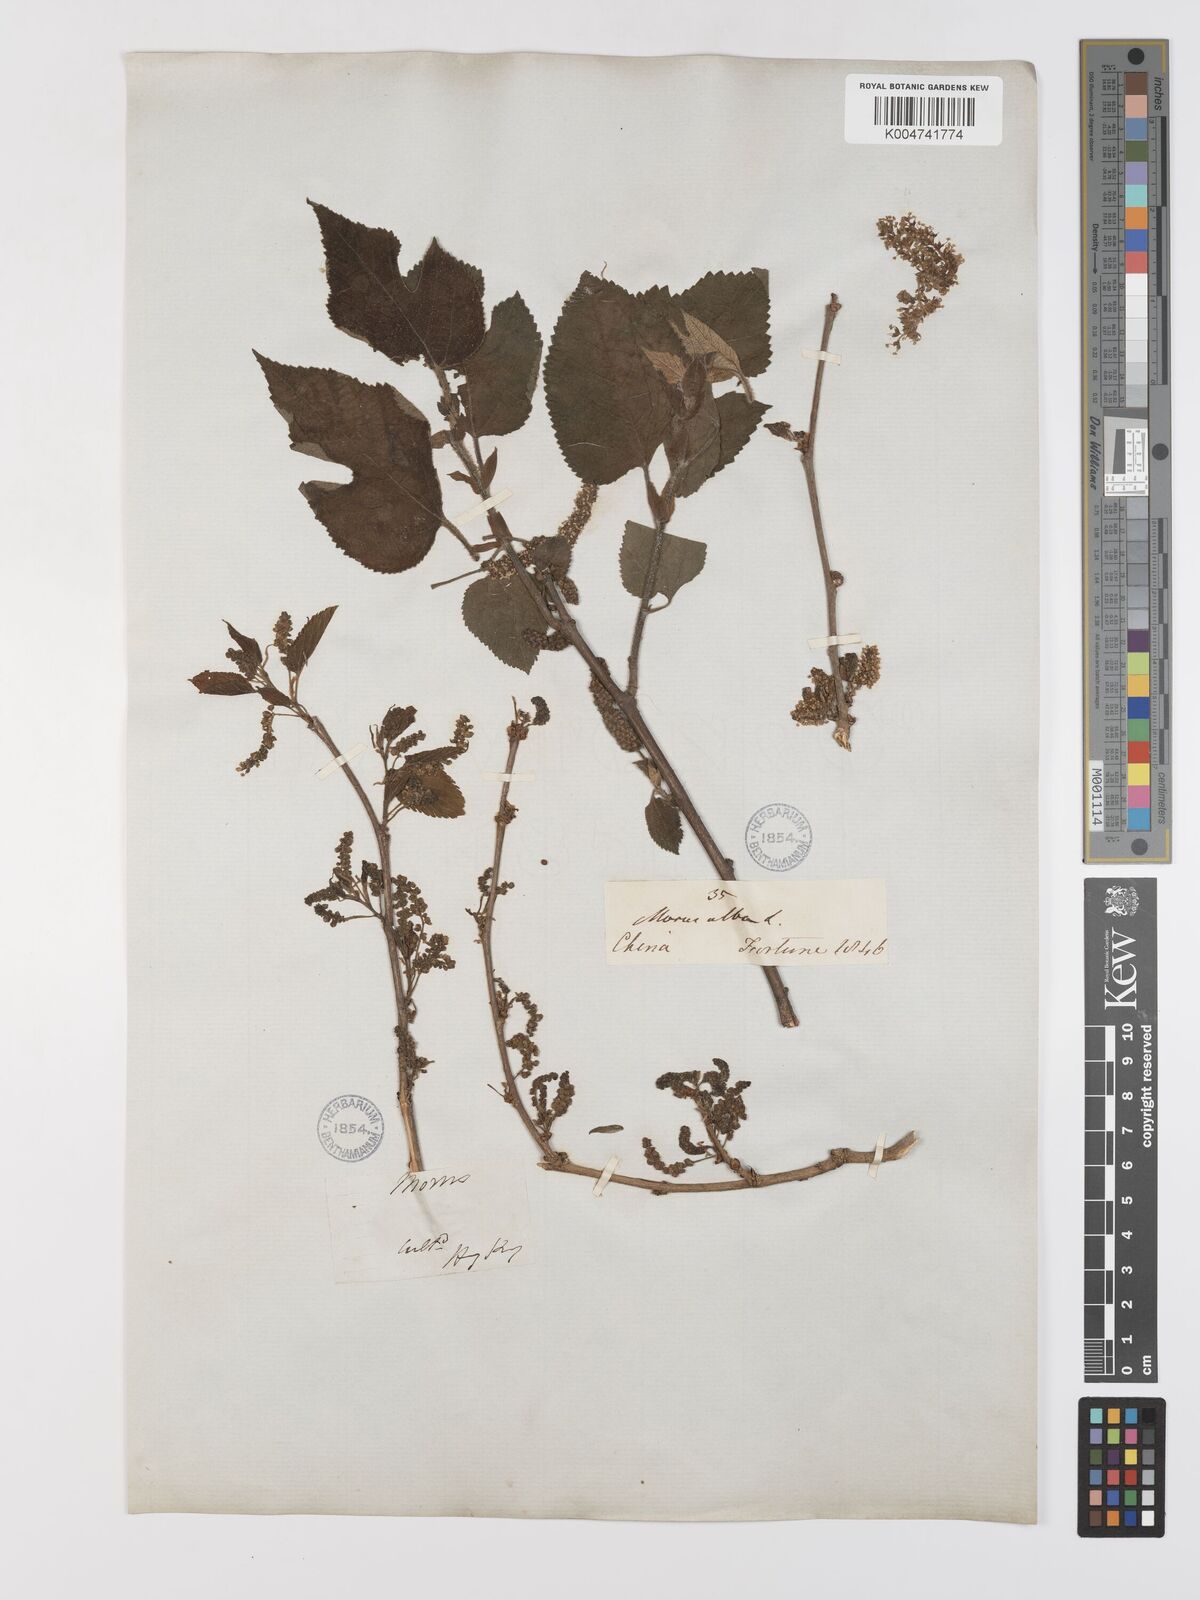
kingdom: Plantae
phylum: Tracheophyta
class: Magnoliopsida
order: Rosales
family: Moraceae
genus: Broussonetia
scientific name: Broussonetia papyrifera
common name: Paper mulberry
